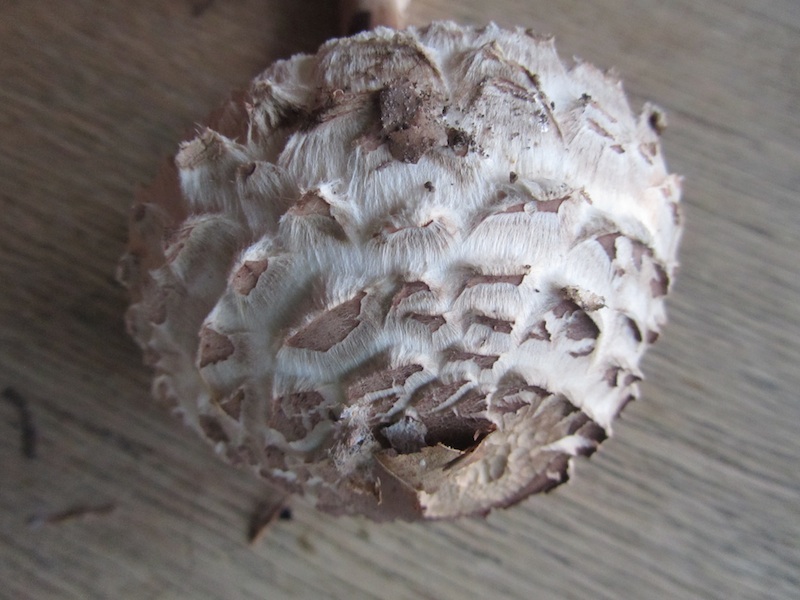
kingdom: Fungi
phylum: Basidiomycota
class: Agaricomycetes
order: Agaricales
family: Agaricaceae
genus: Chlorophyllum
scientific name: Chlorophyllum rhacodes
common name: ægte rabarberhat
